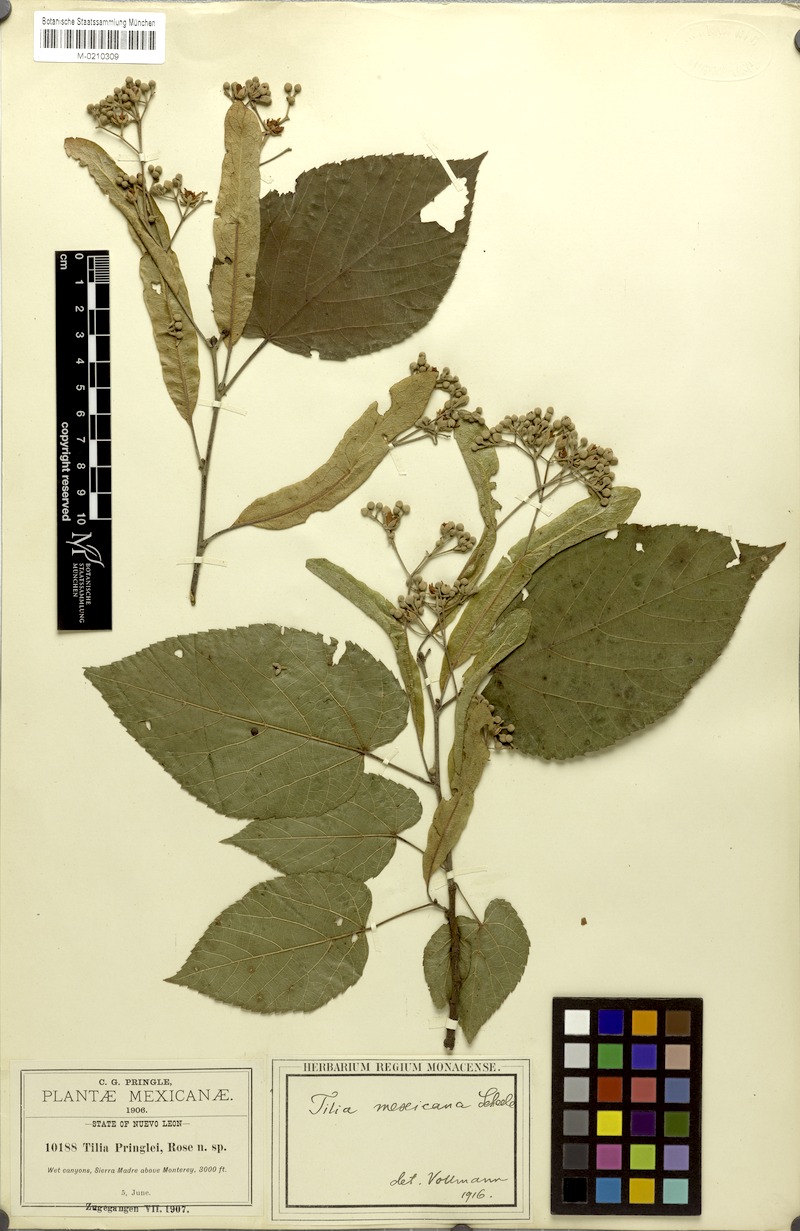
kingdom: Plantae
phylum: Tracheophyta
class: Magnoliopsida
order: Malvales
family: Malvaceae
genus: Tilia
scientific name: Tilia mexicana
